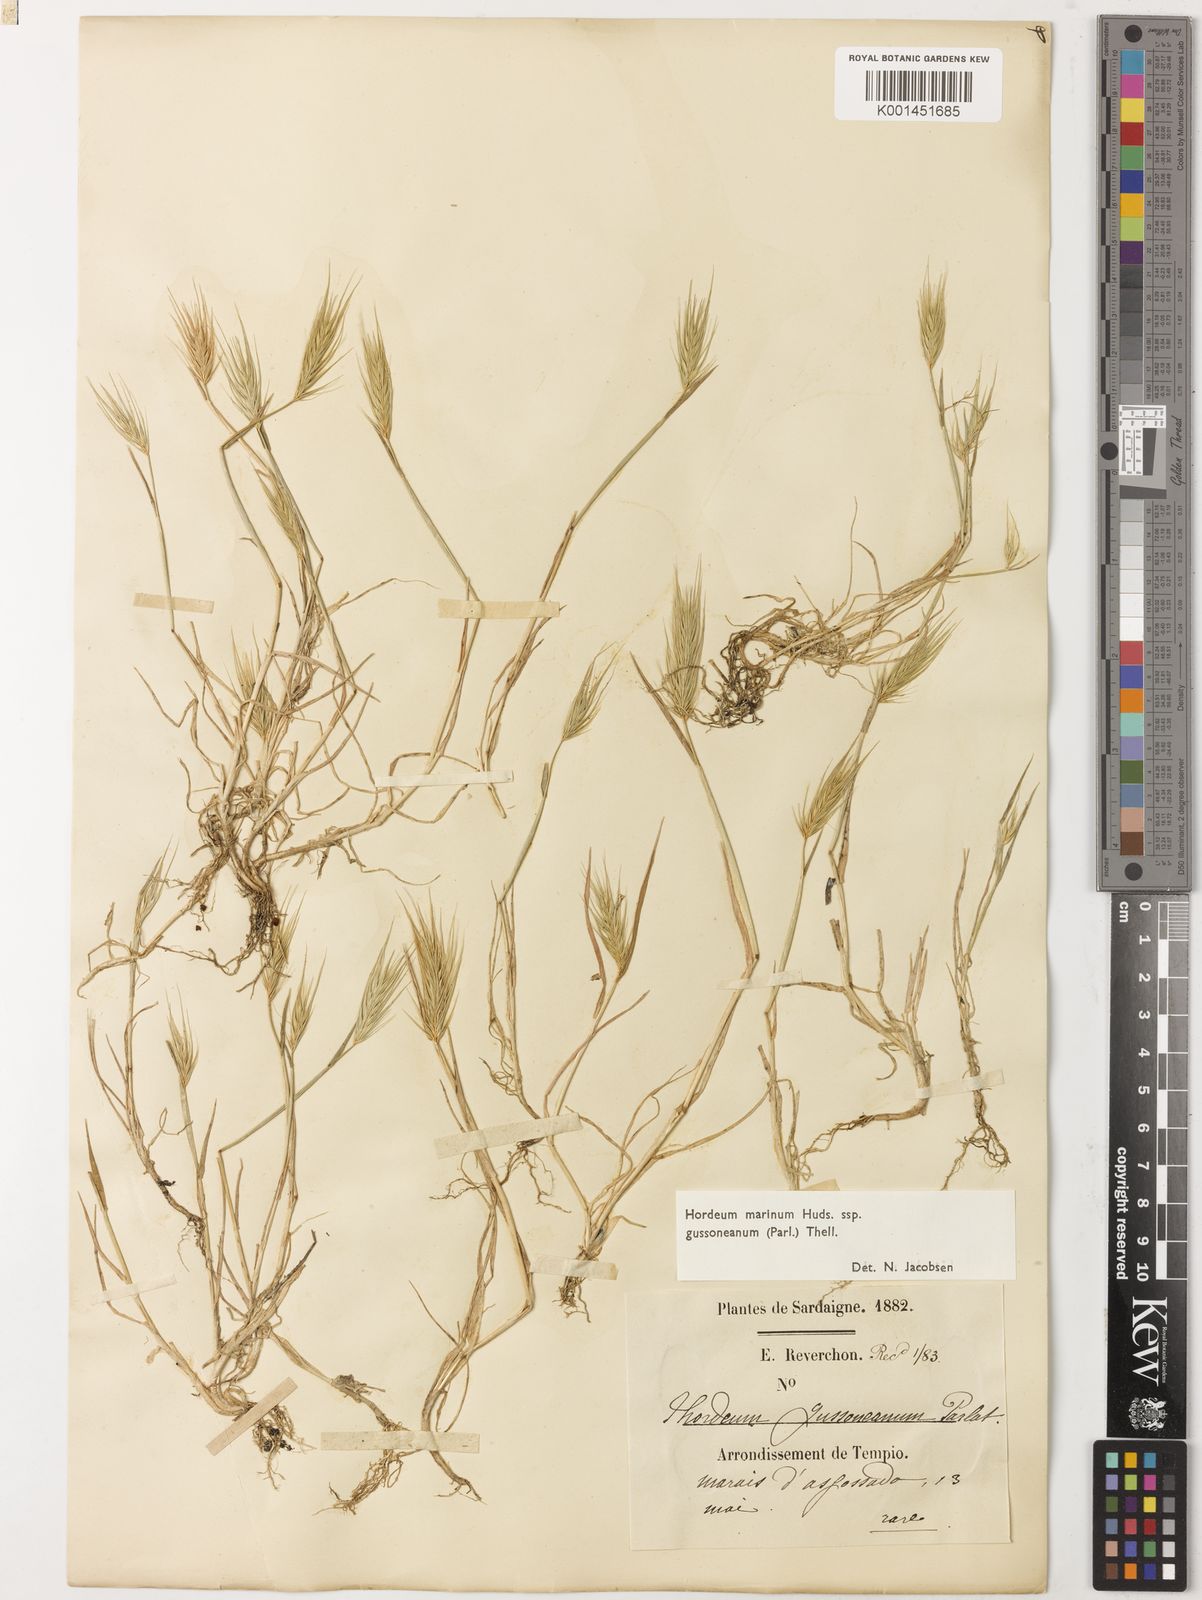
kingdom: Plantae
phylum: Tracheophyta
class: Liliopsida
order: Poales
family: Poaceae
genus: Hordeum
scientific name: Hordeum marinum
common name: Sea barley
